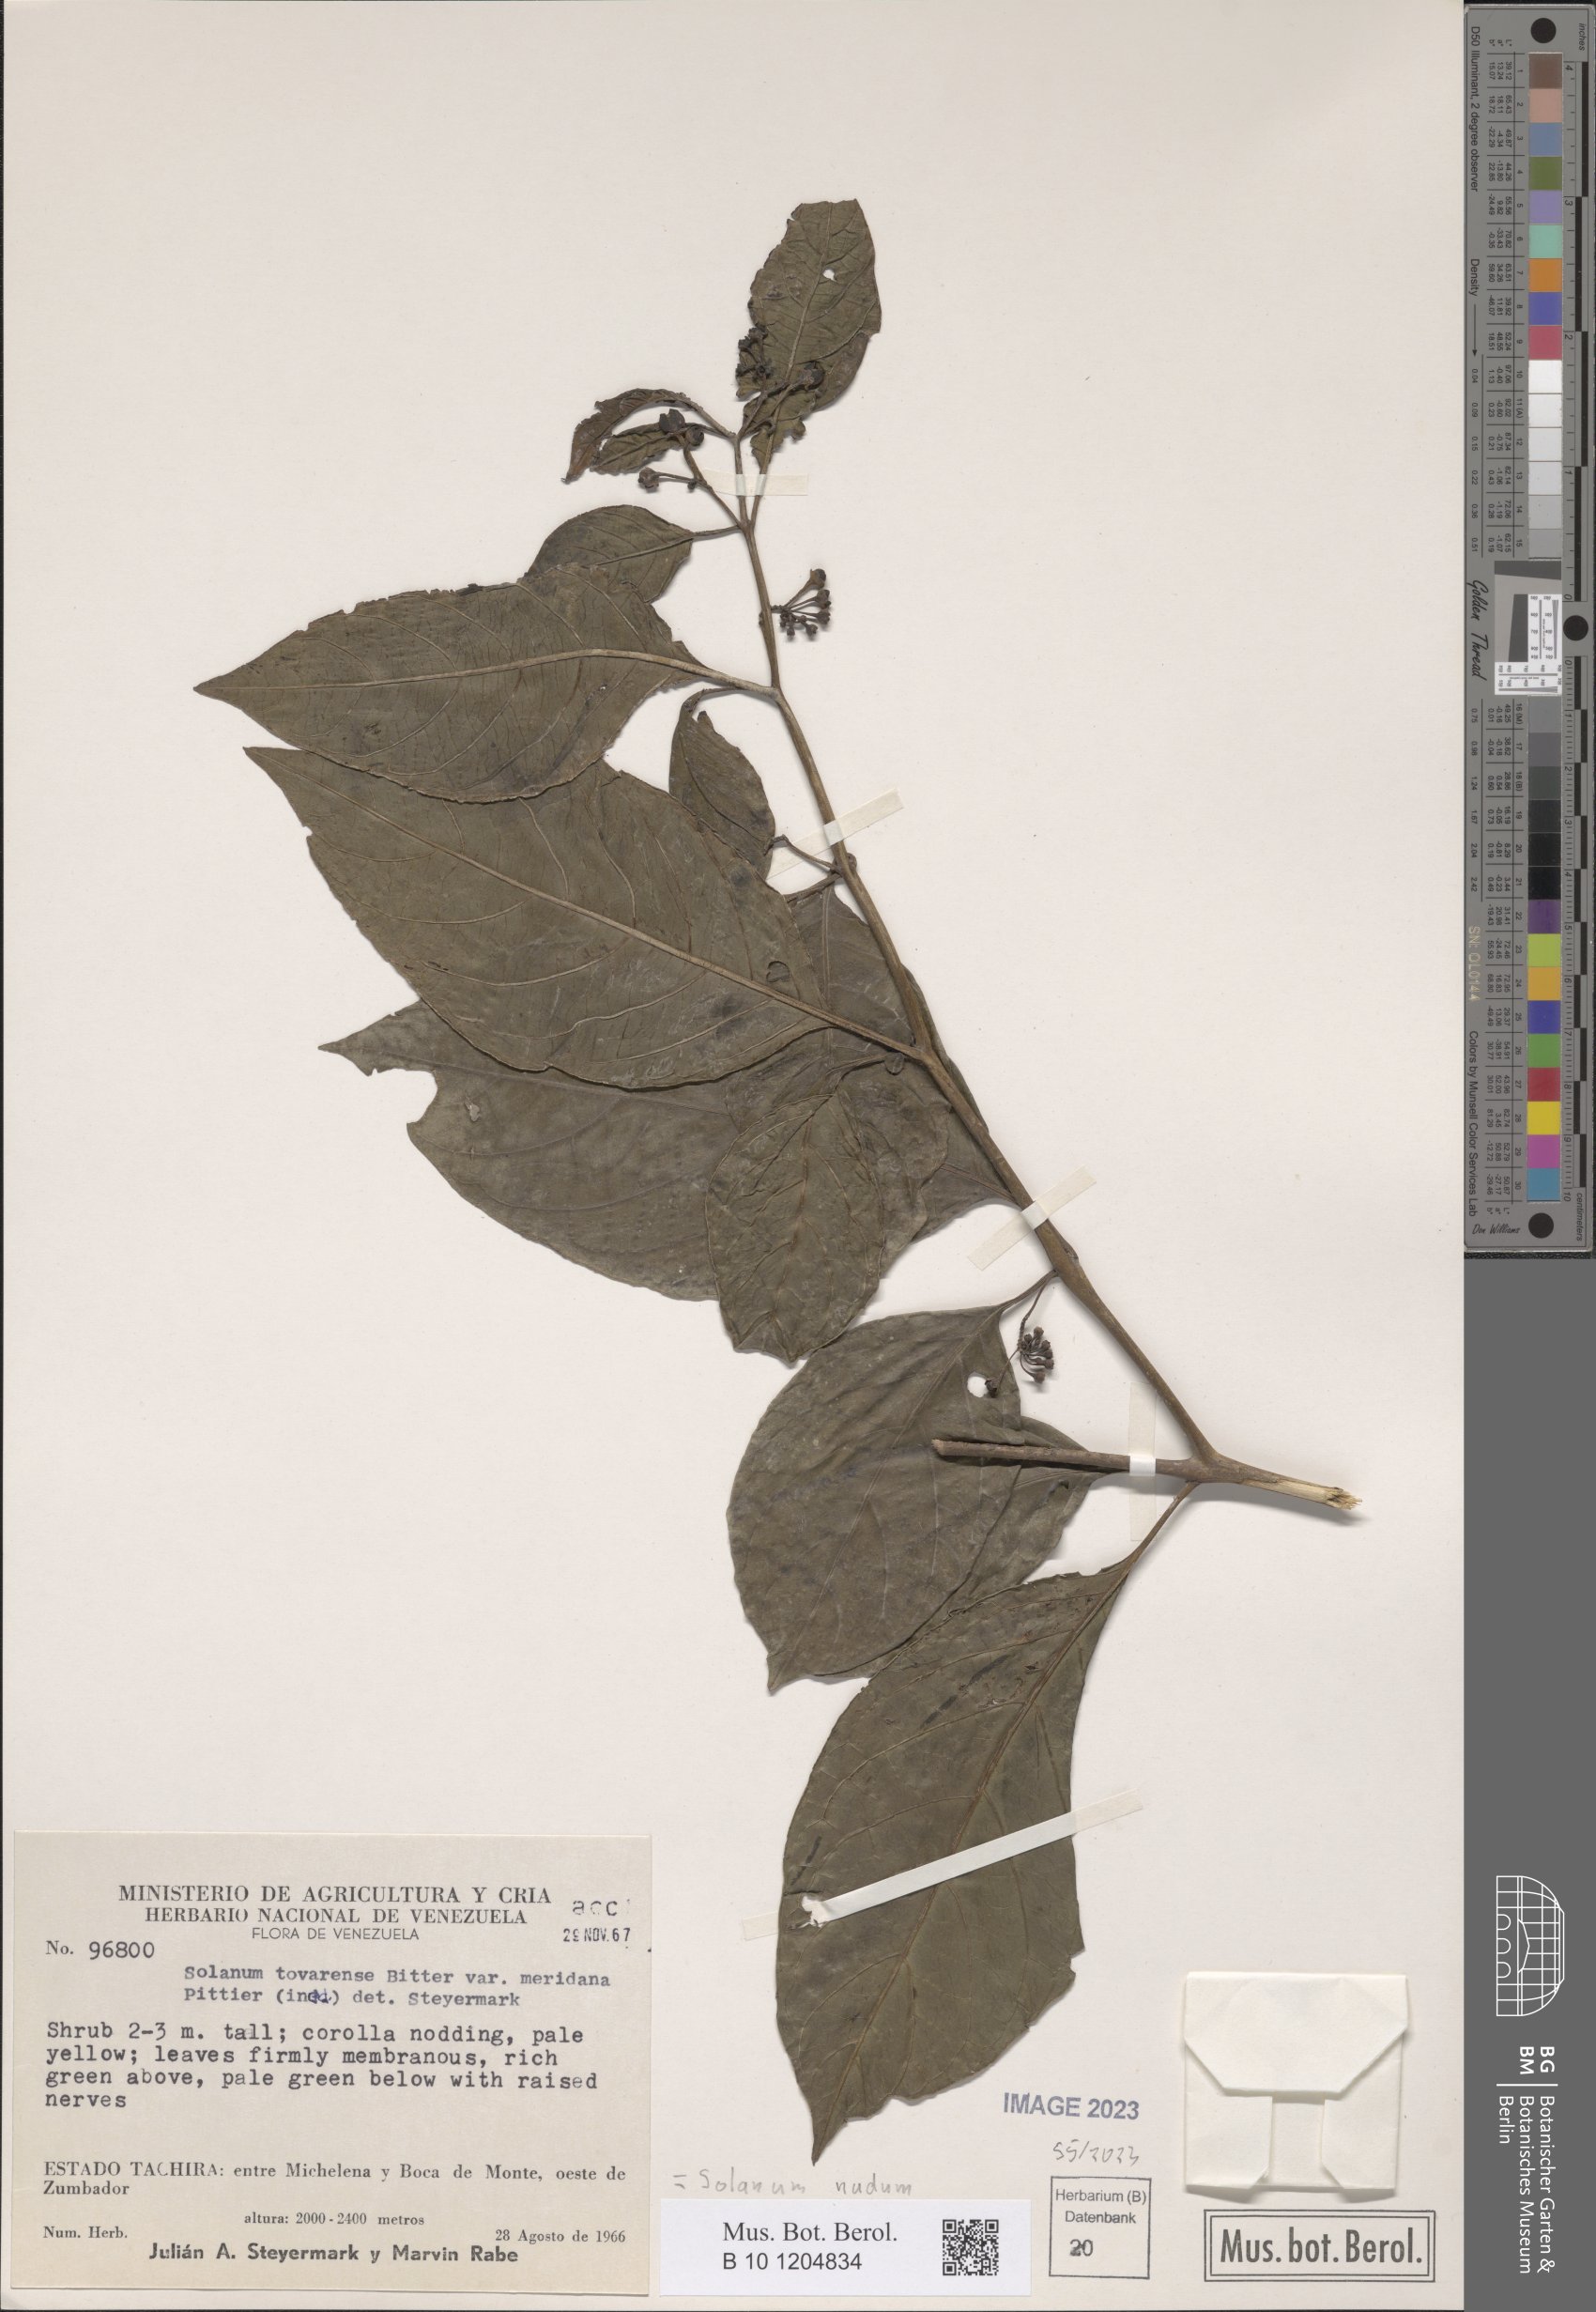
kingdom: Plantae
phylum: Tracheophyta
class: Magnoliopsida
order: Solanales
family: Solanaceae
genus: Solanum
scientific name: Solanum nudum
